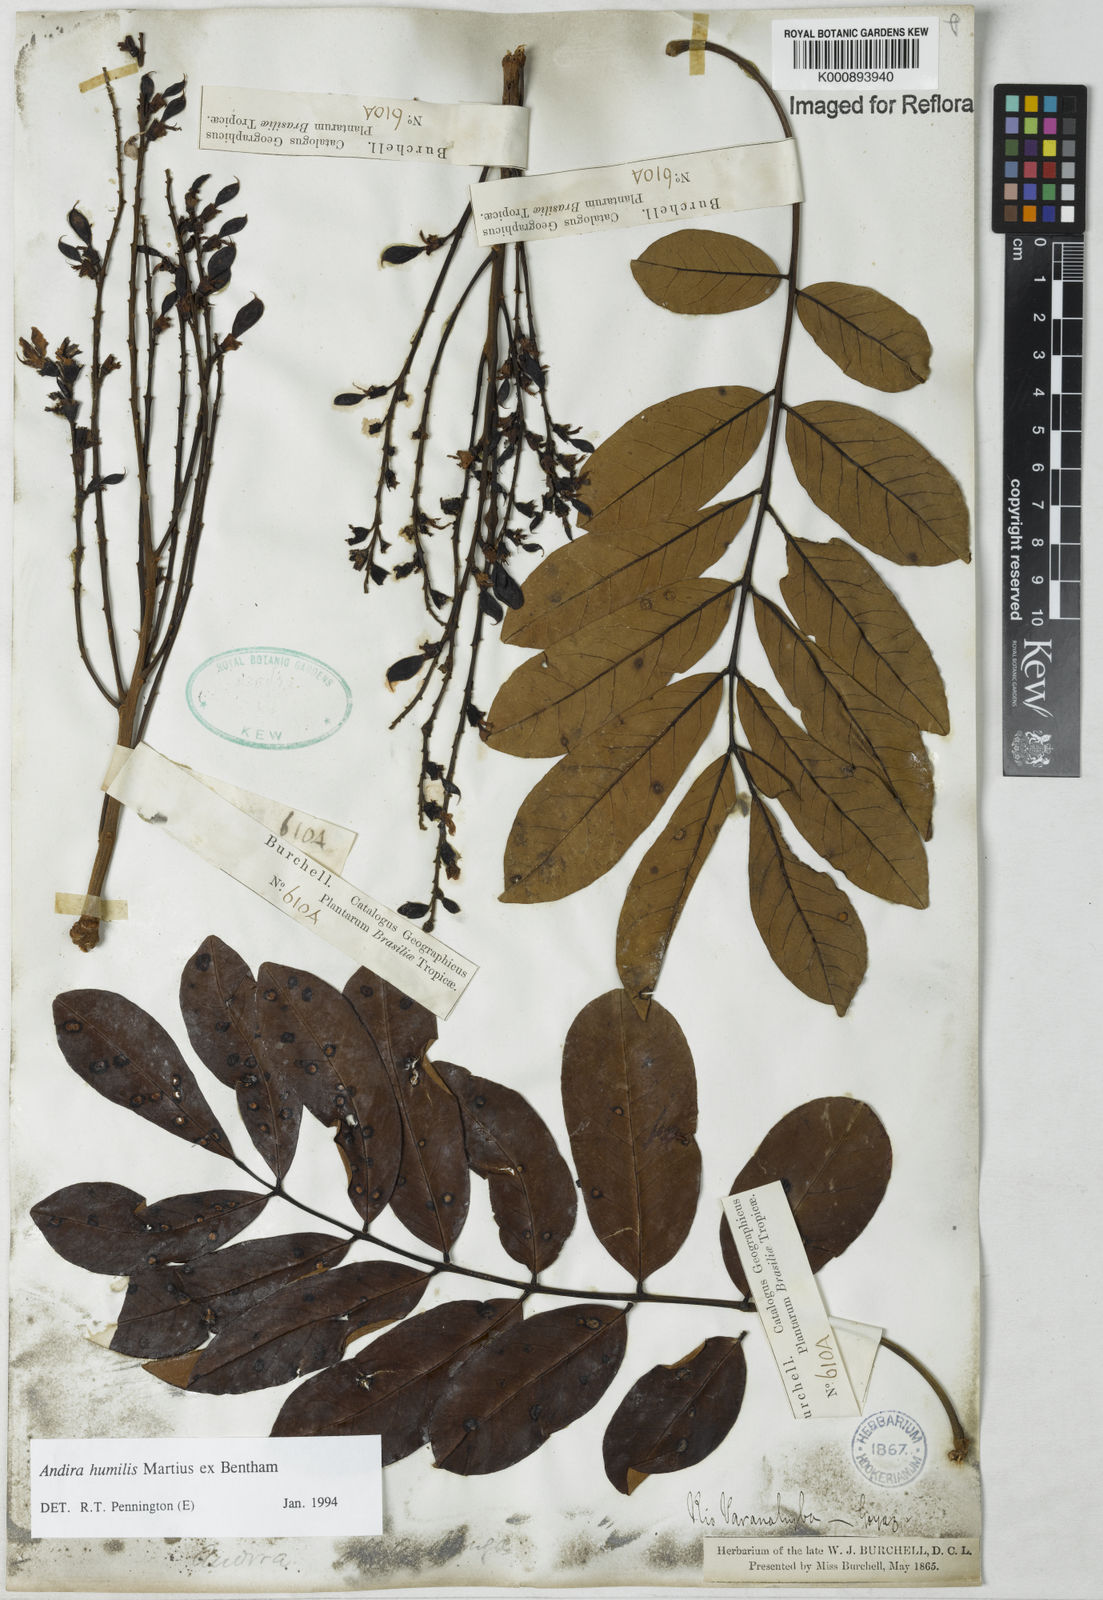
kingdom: Plantae
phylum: Tracheophyta
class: Magnoliopsida
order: Fabales
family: Fabaceae
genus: Andira
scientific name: Andira humilis
